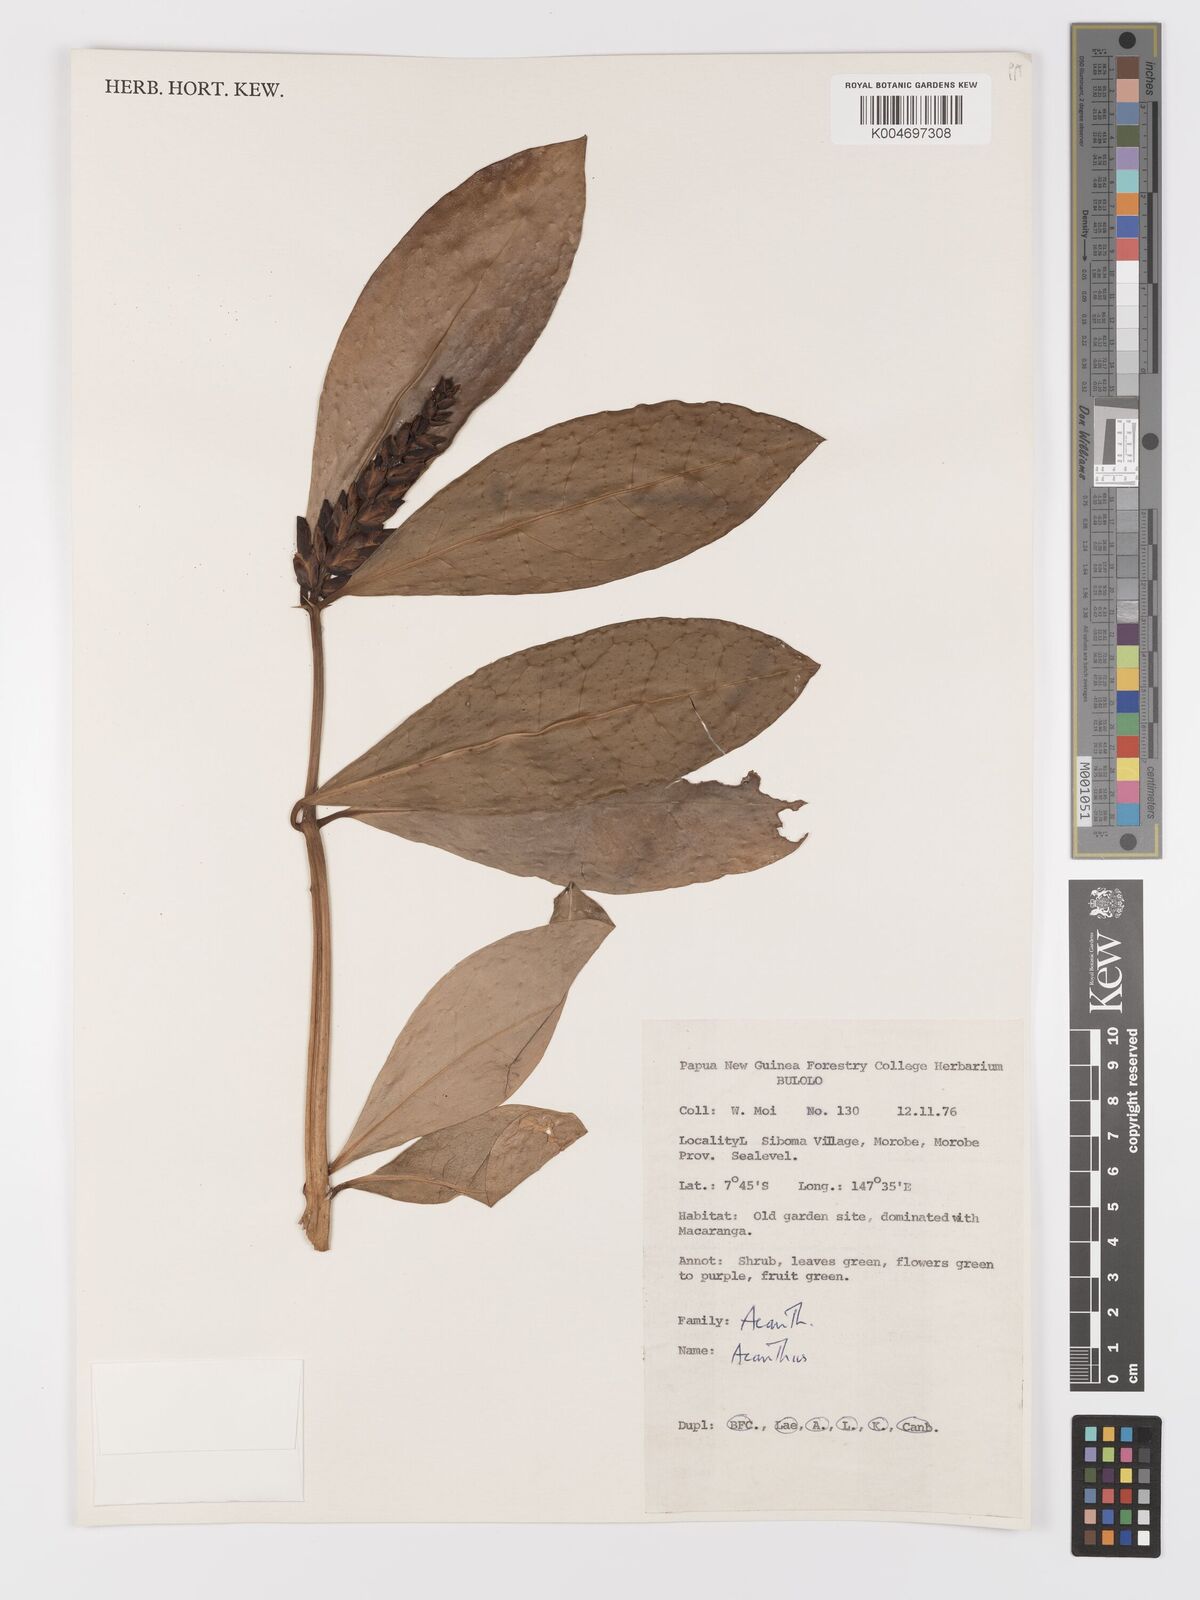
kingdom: Plantae
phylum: Tracheophyta
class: Magnoliopsida
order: Lamiales
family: Acanthaceae
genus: Acanthus
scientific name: Acanthus ilicifolius
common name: Holy mangrove
